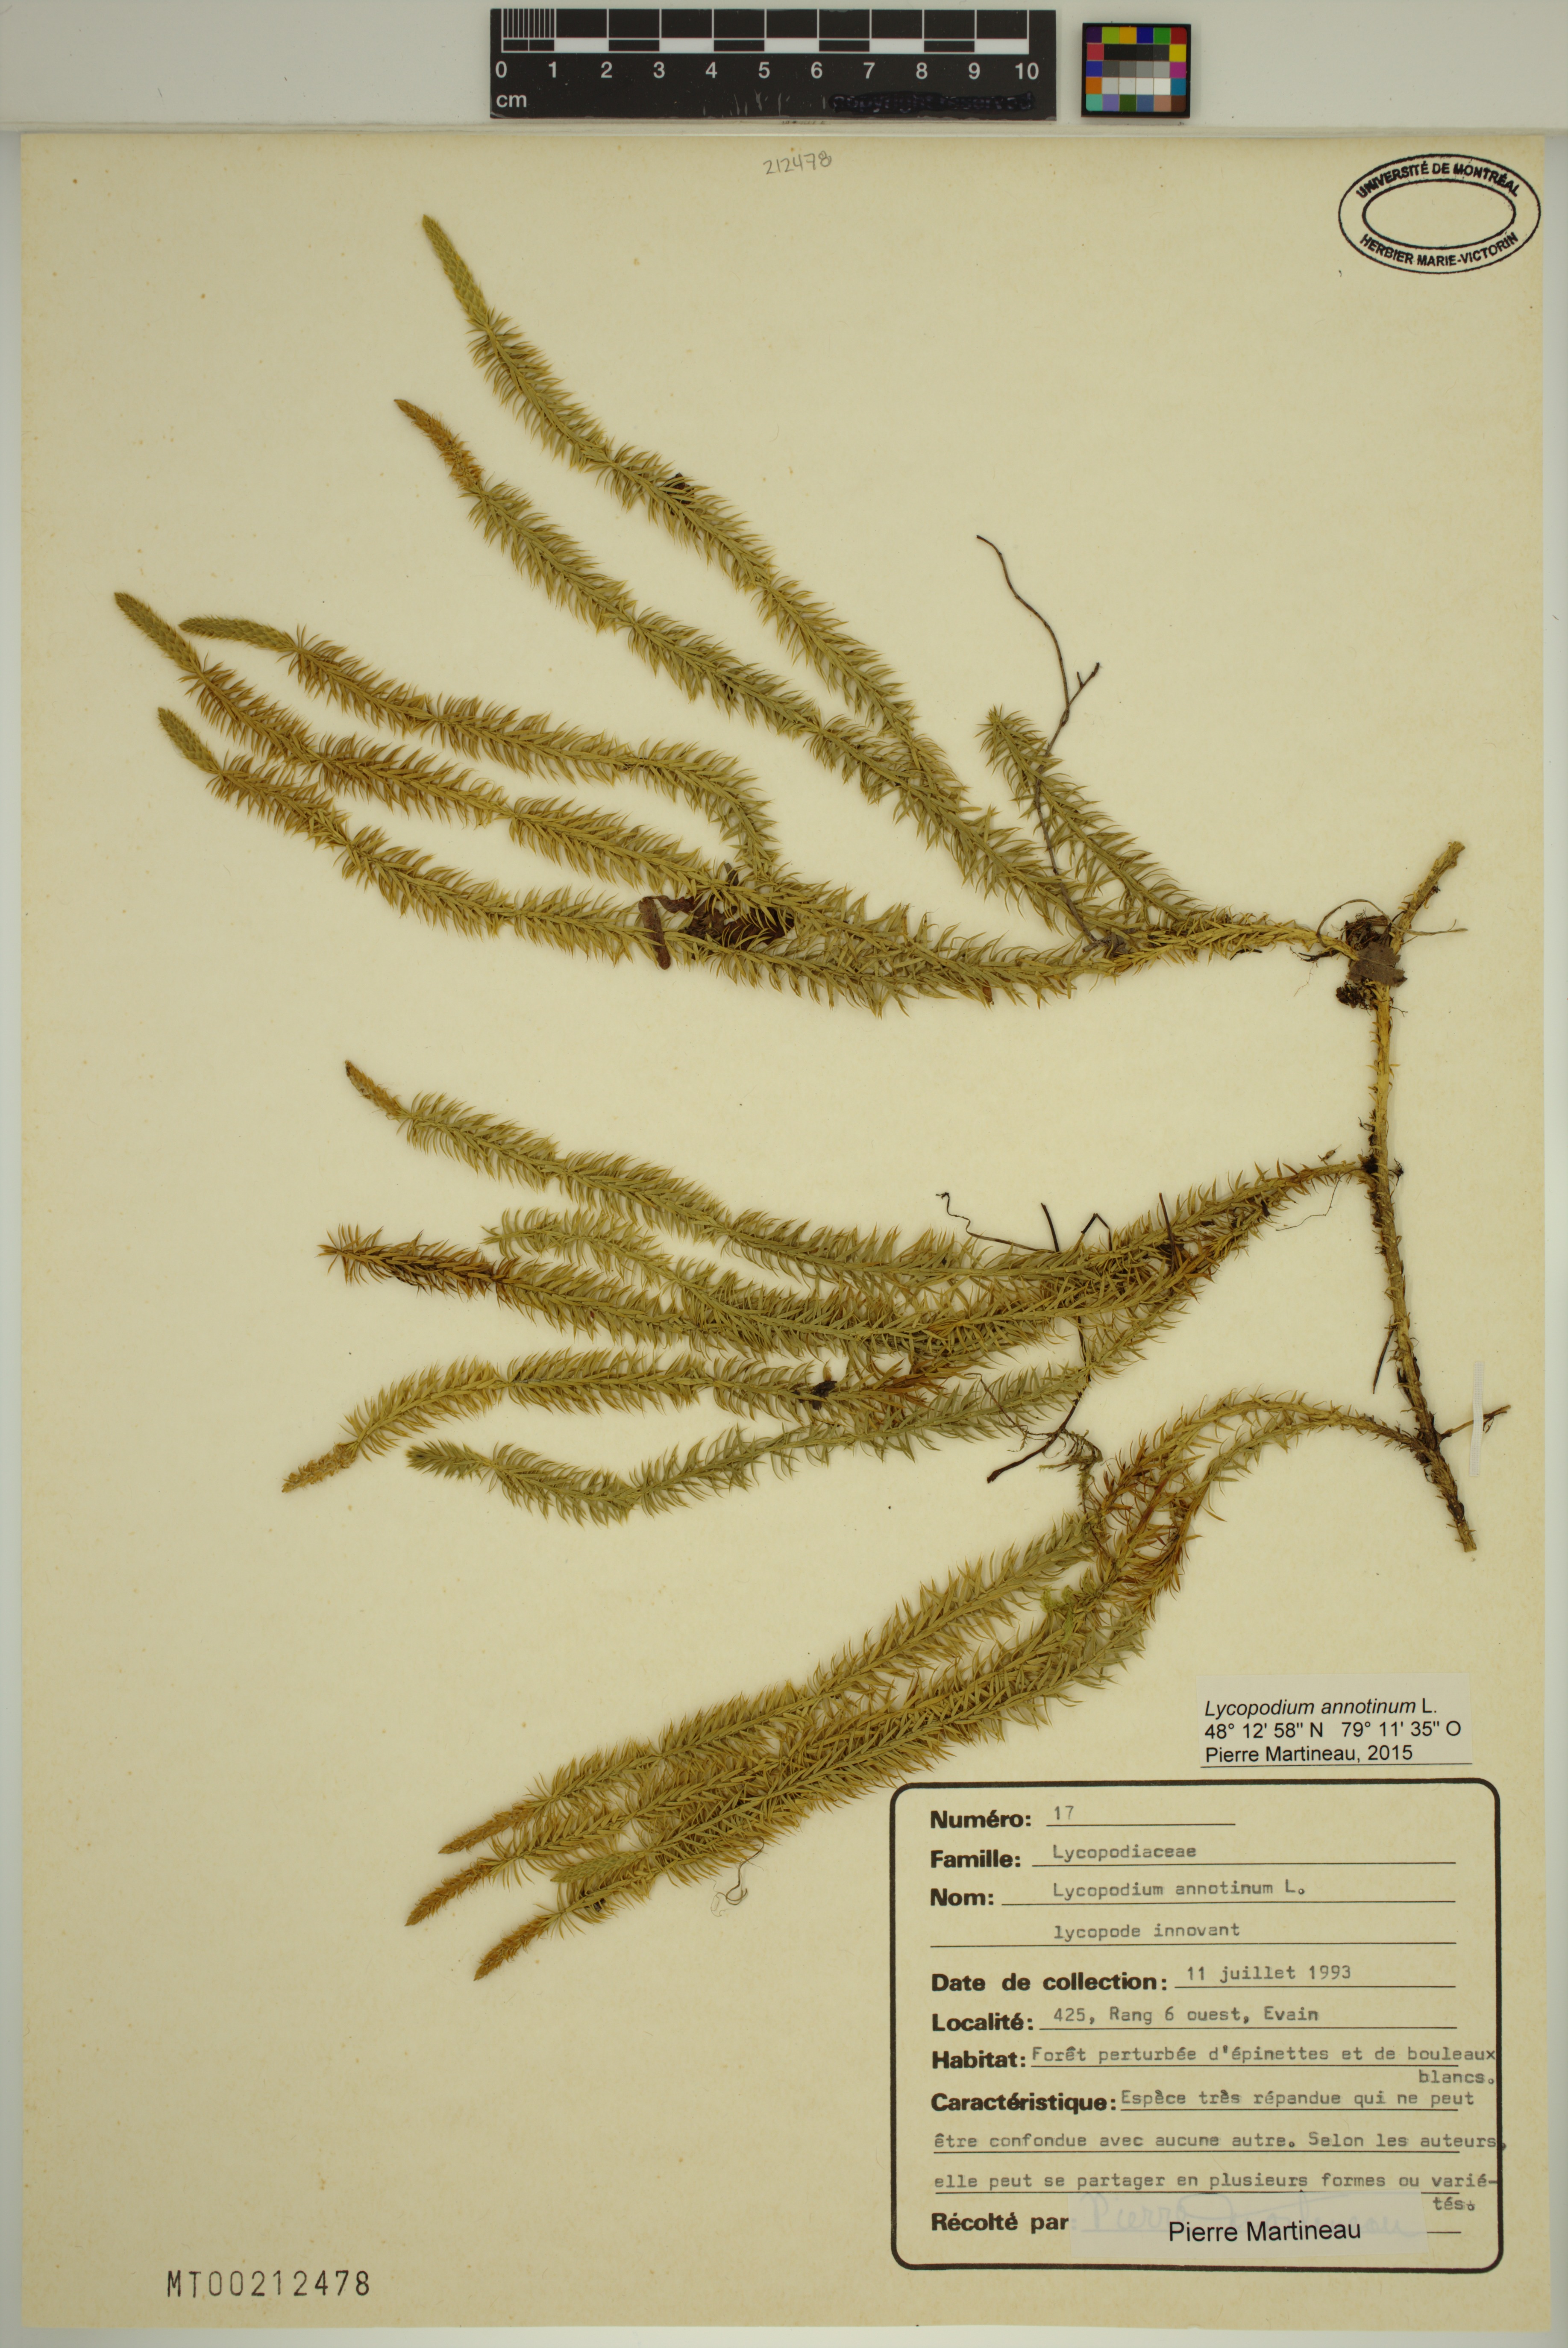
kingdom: Plantae
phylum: Tracheophyta
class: Lycopodiopsida
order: Lycopodiales
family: Lycopodiaceae
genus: Spinulum
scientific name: Spinulum annotinum
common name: Interrupted club-moss
